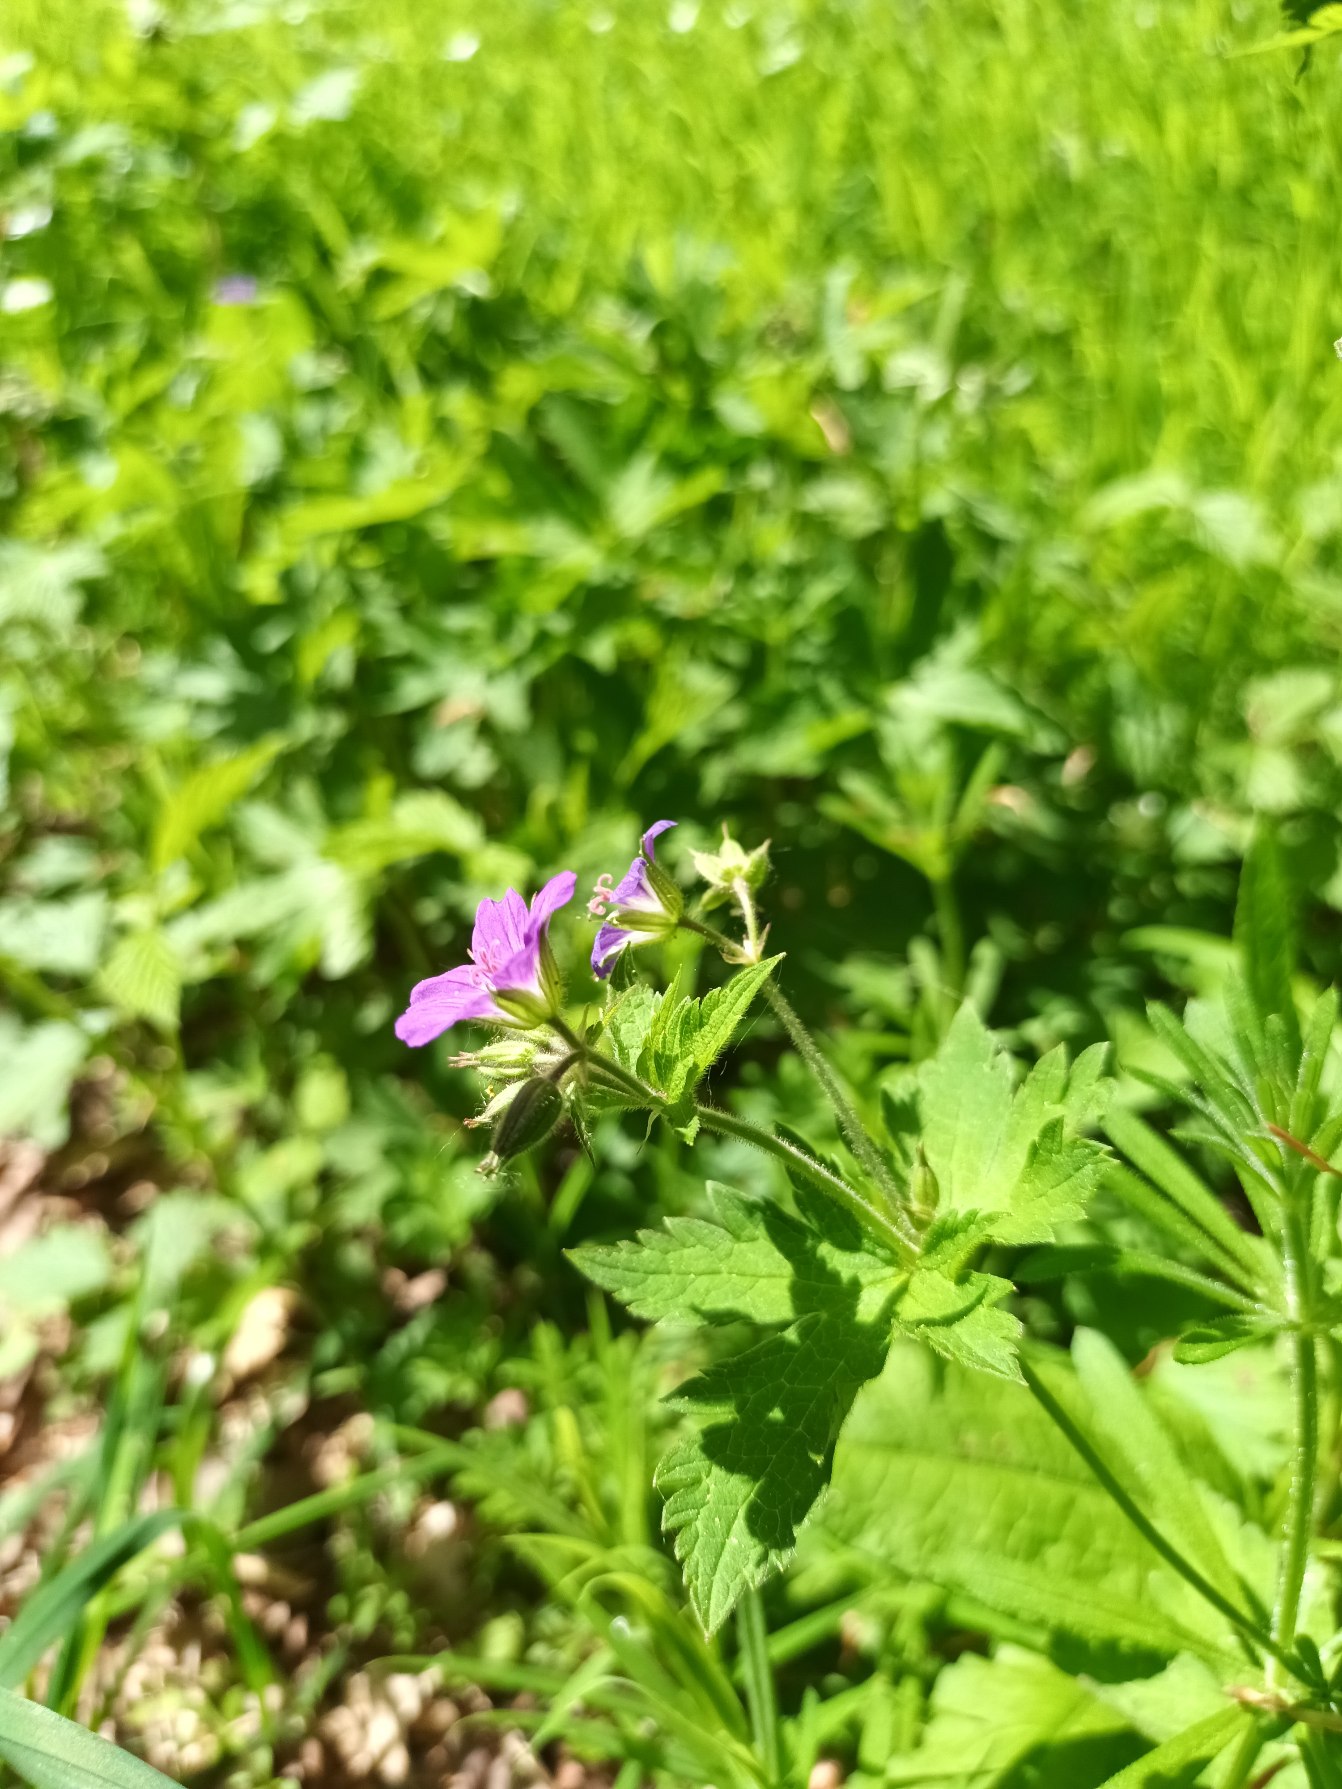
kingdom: Plantae
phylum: Tracheophyta
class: Magnoliopsida
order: Geraniales
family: Geraniaceae
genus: Geranium
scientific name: Geranium sylvaticum
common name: Skov-storkenæb
